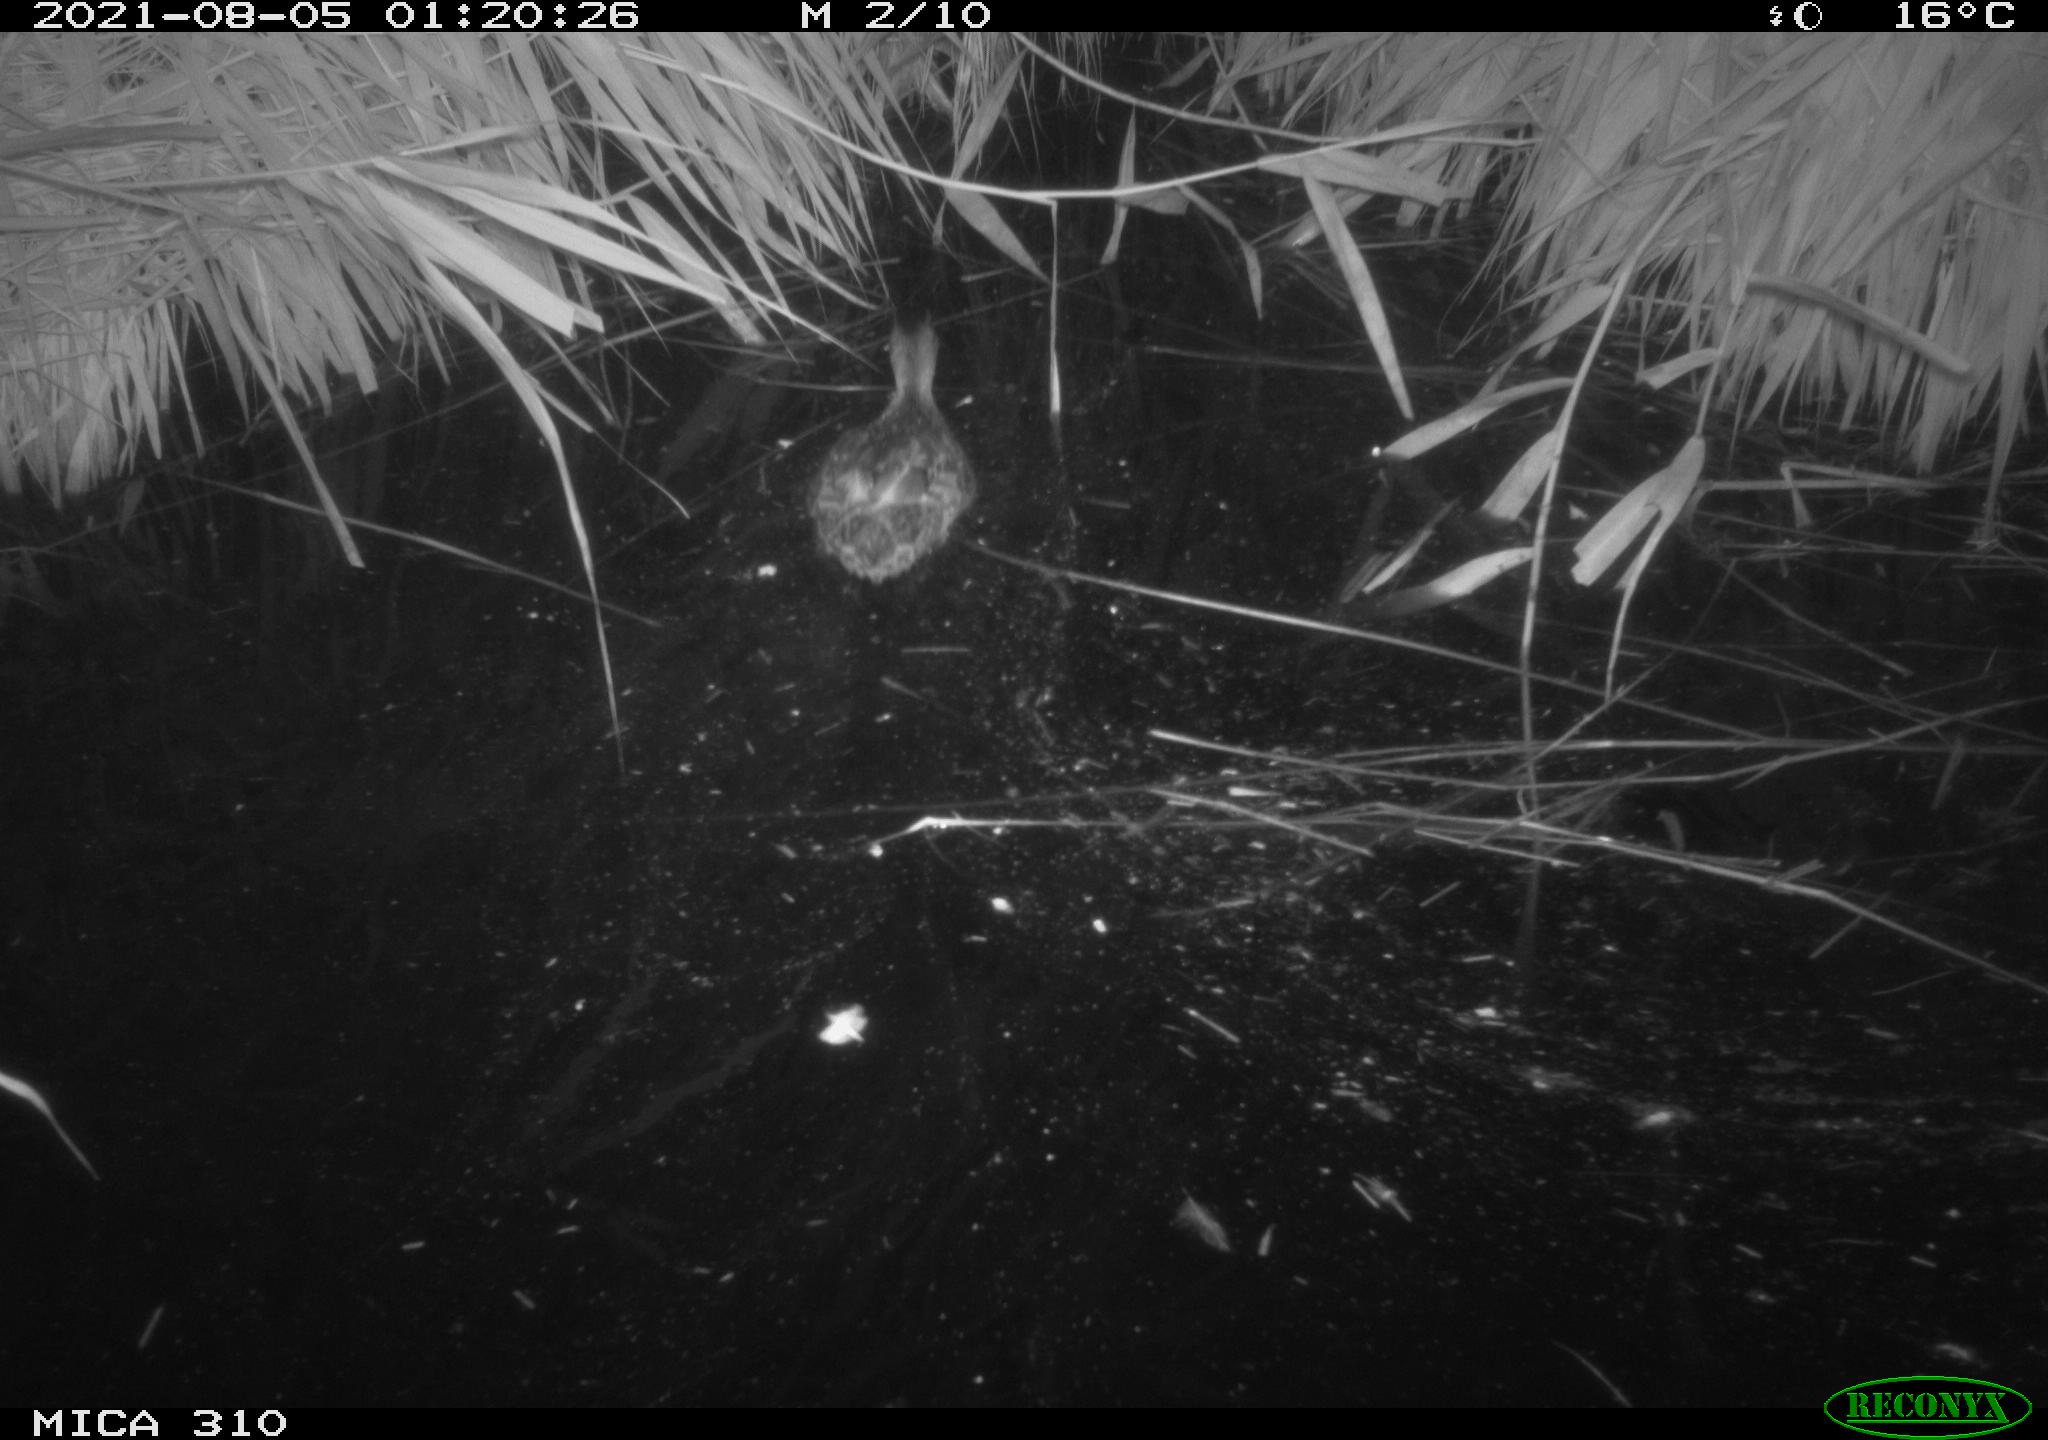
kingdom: Animalia
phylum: Chordata
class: Aves
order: Anseriformes
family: Anatidae
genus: Anas
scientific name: Anas platyrhynchos
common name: Mallard
